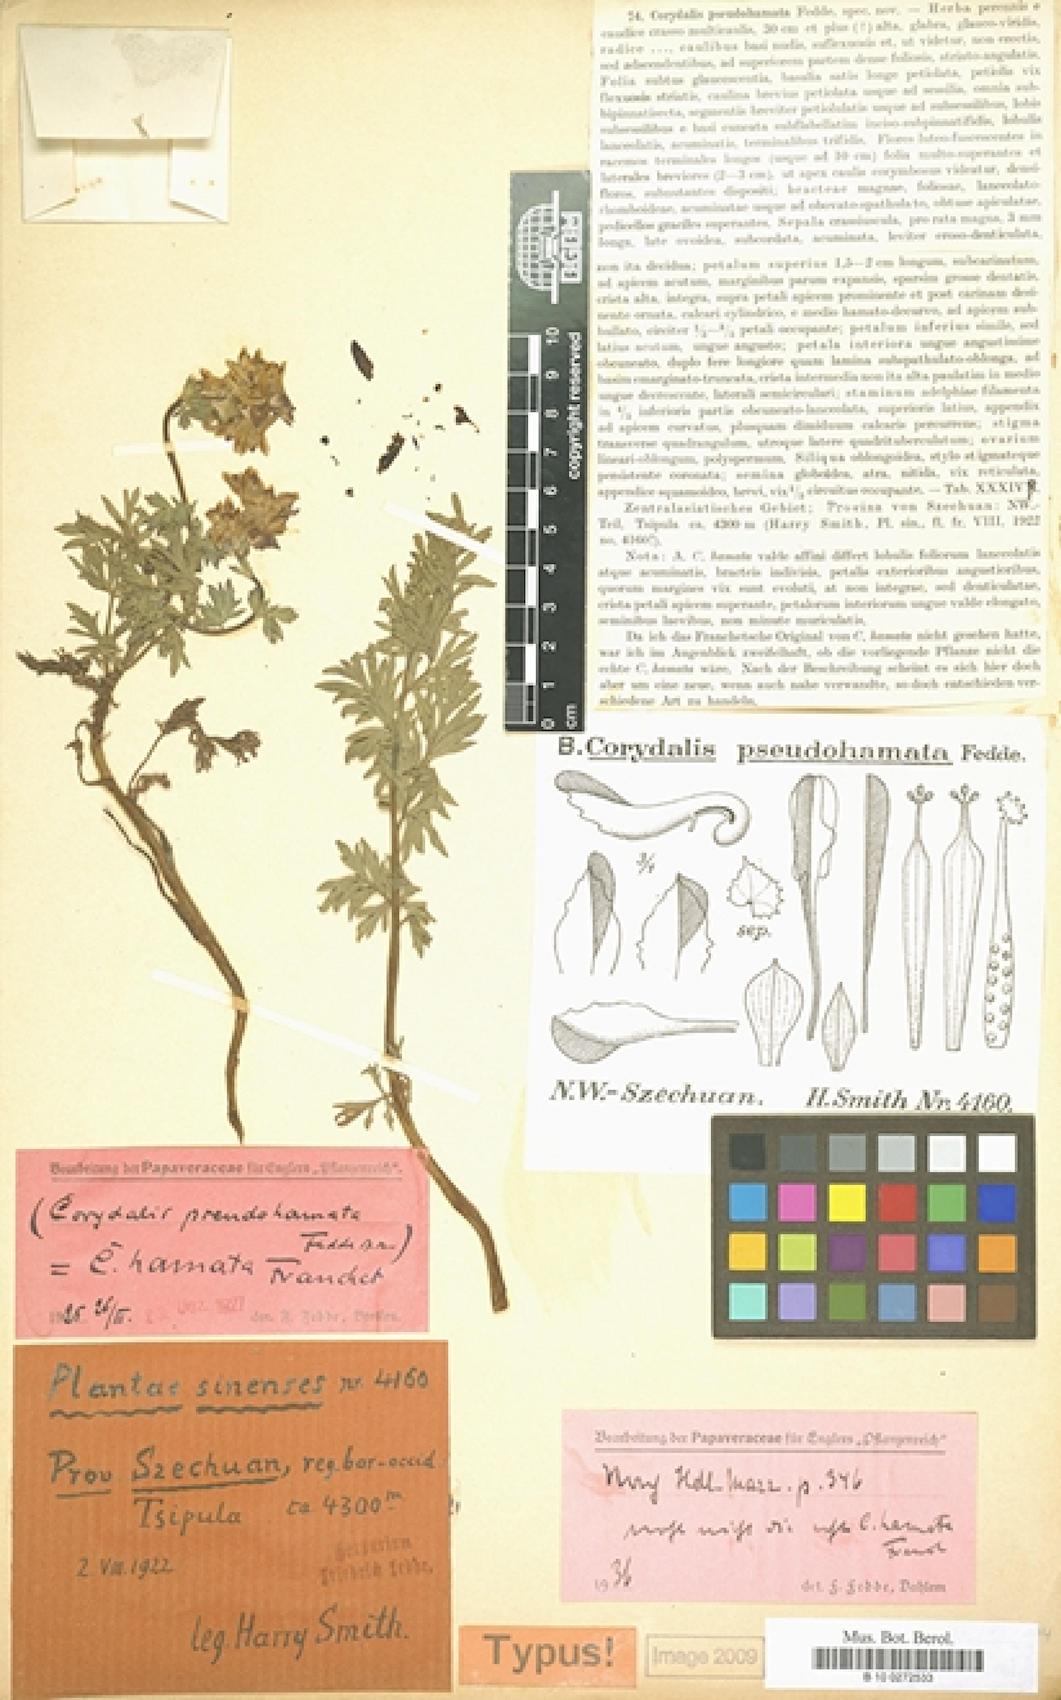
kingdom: Plantae
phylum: Tracheophyta
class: Magnoliopsida
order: Ranunculales
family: Papaveraceae
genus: Corydalis
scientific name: Corydalis hamata
